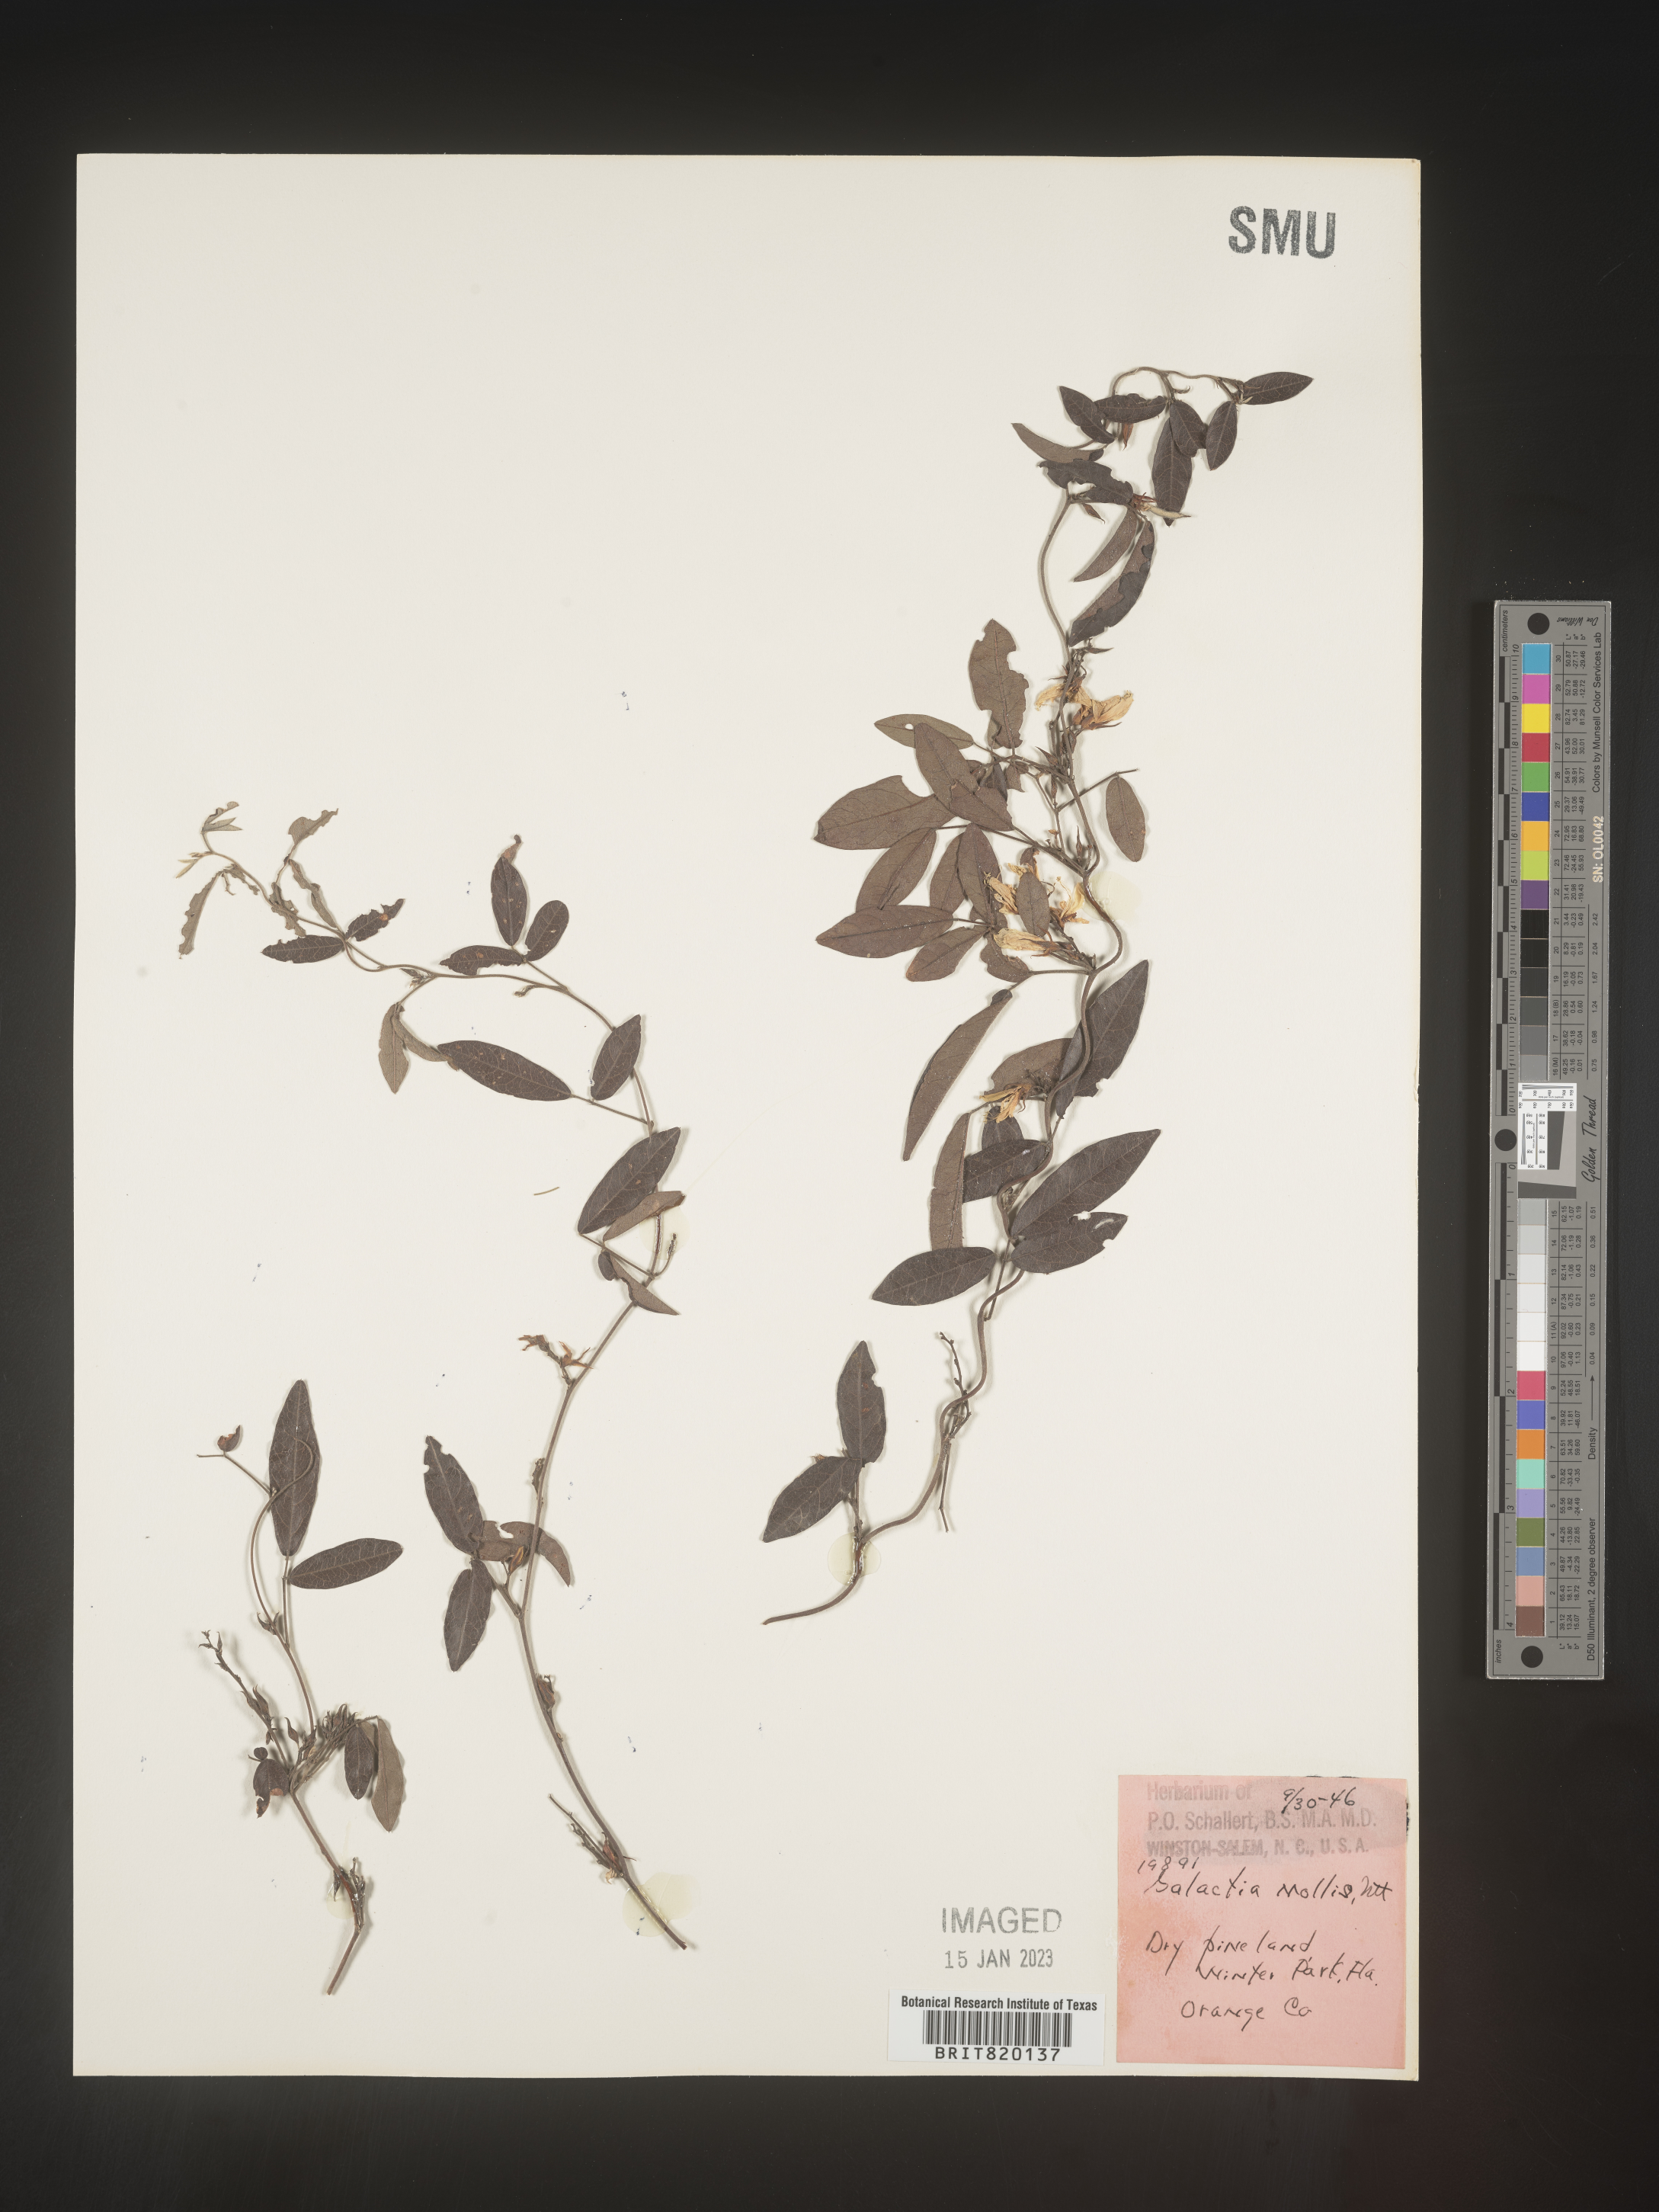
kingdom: Plantae
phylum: Tracheophyta
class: Magnoliopsida
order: Fabales
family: Fabaceae
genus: Galactia
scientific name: Galactia
